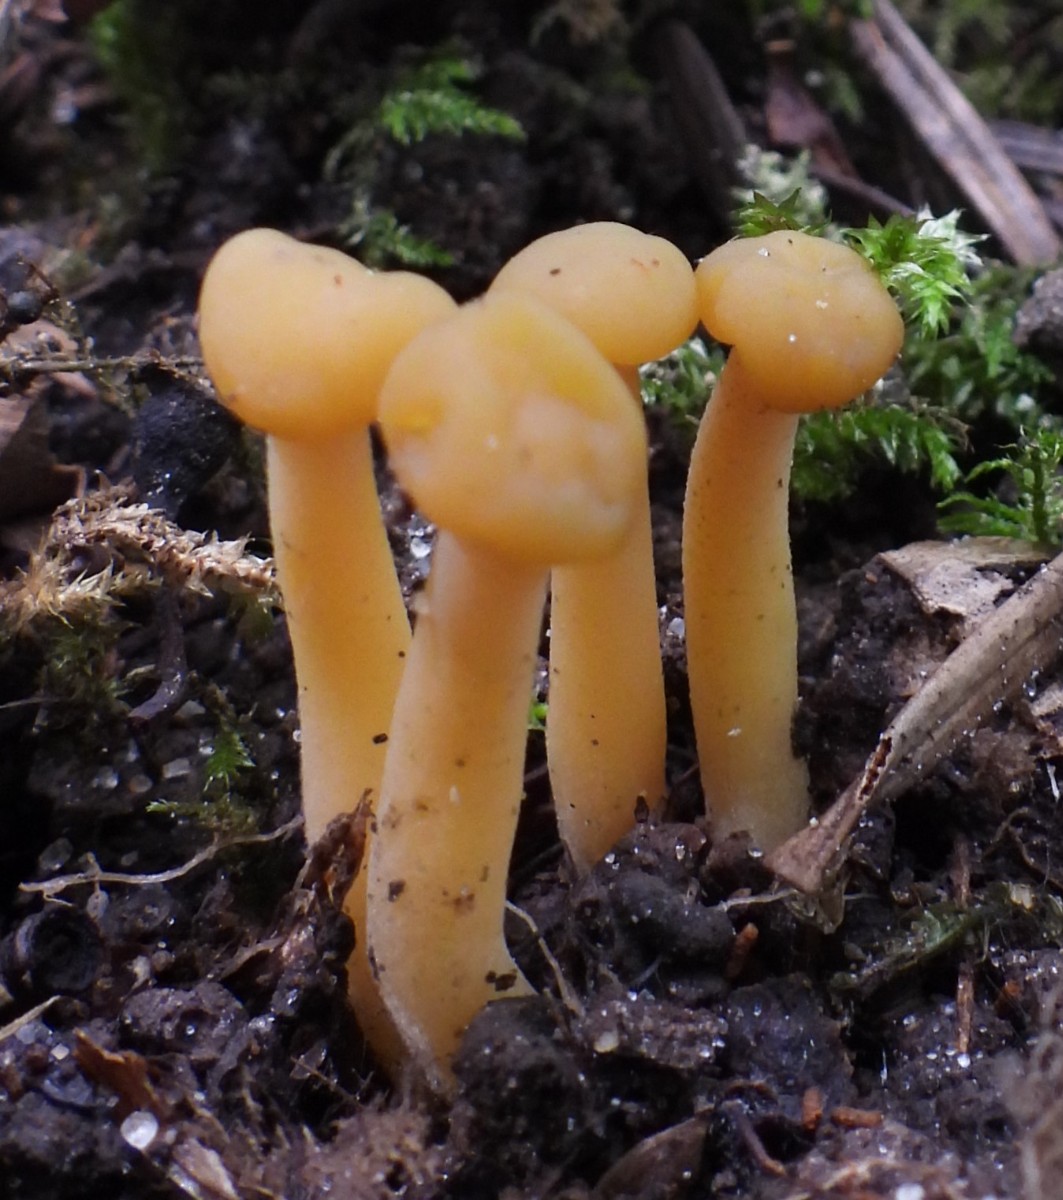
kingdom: Fungi
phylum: Ascomycota
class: Leotiomycetes
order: Leotiales
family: Leotiaceae
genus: Leotia
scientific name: Leotia lubrica
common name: ravsvamp
